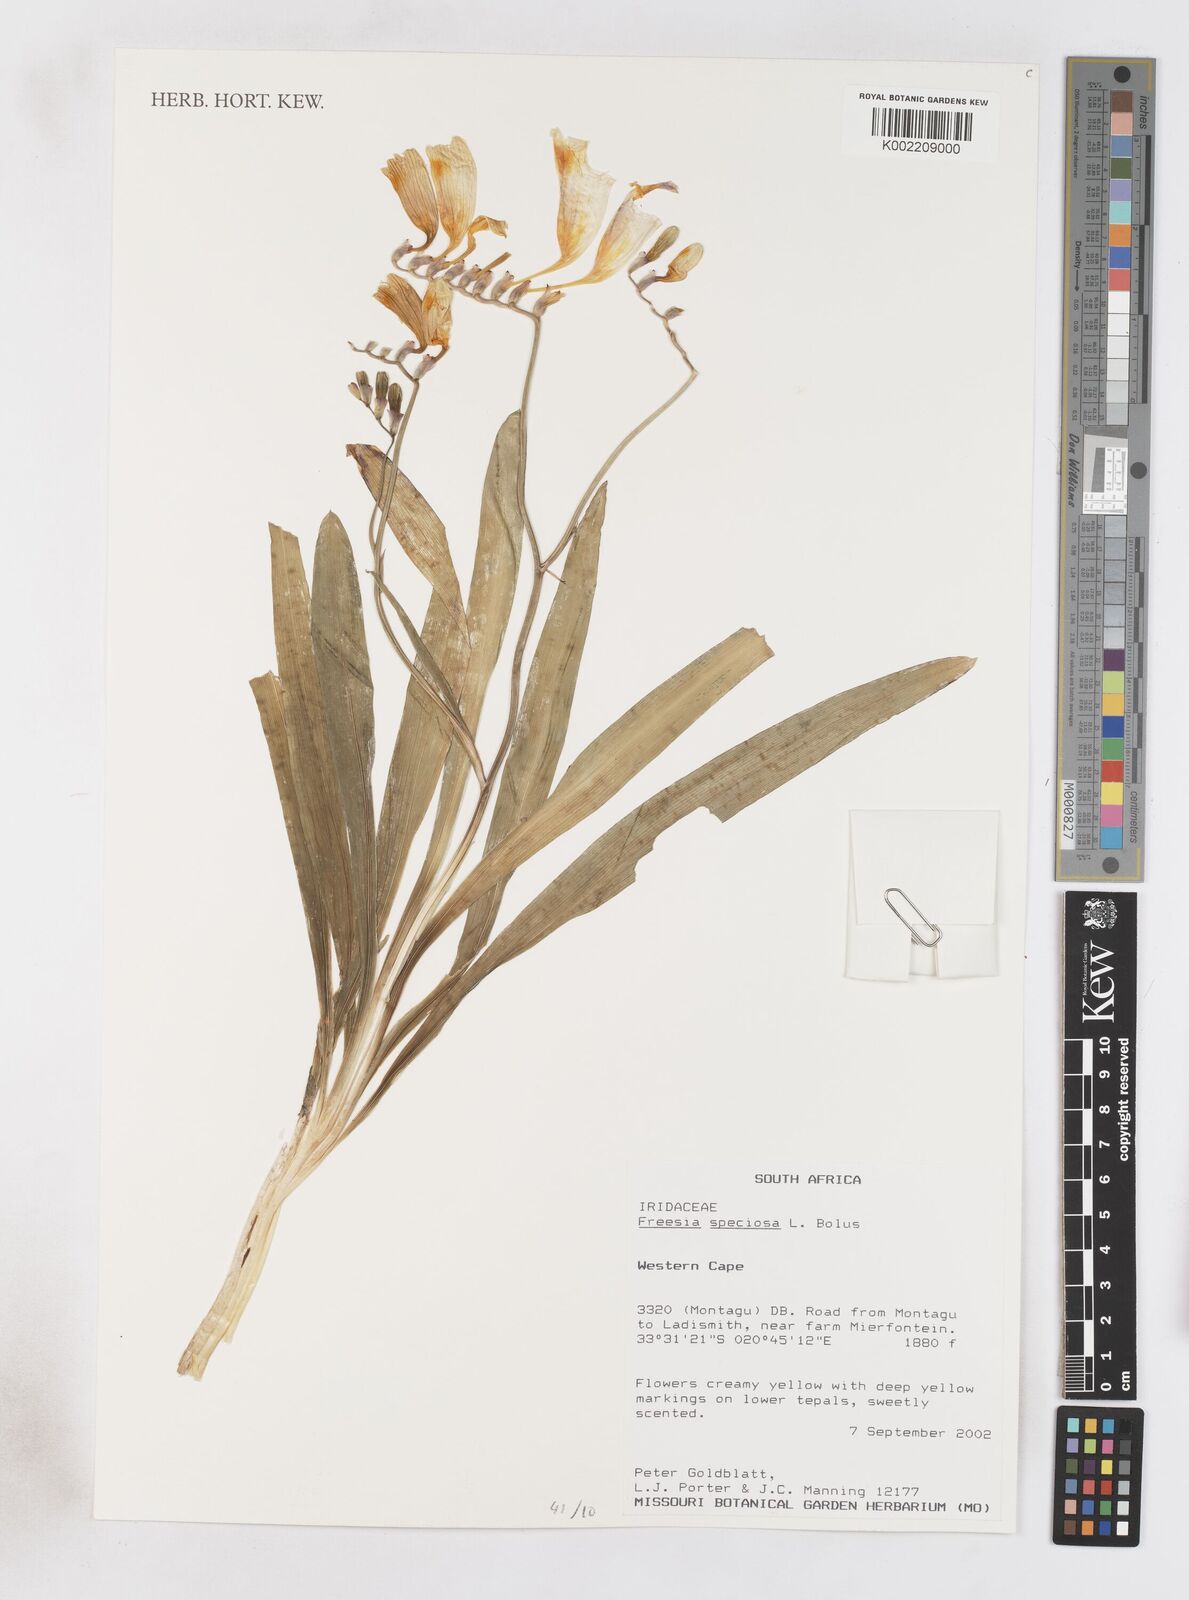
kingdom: Plantae
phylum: Tracheophyta
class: Liliopsida
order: Asparagales
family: Iridaceae
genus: Freesia
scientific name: Freesia speciosa
